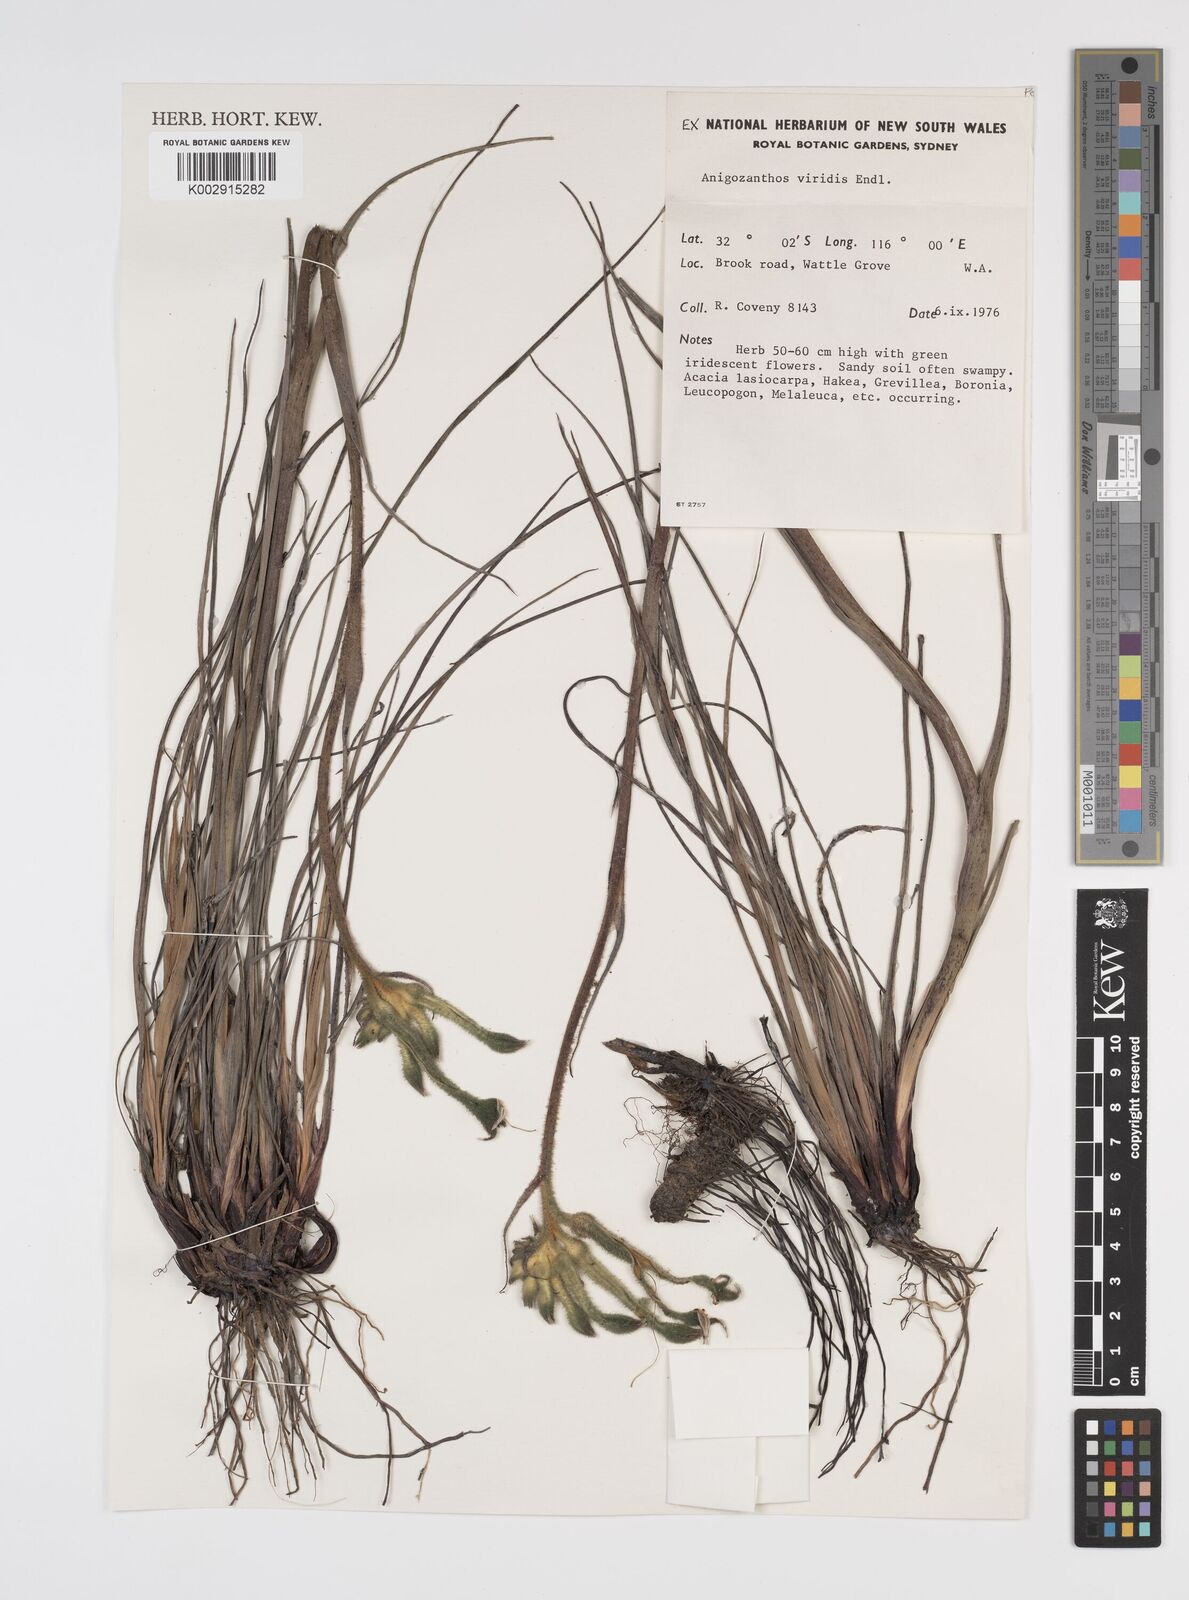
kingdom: Plantae
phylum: Tracheophyta
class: Liliopsida
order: Commelinales
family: Haemodoraceae
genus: Anigozanthos
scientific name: Anigozanthos viridis
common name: Green kangaroo-paw
